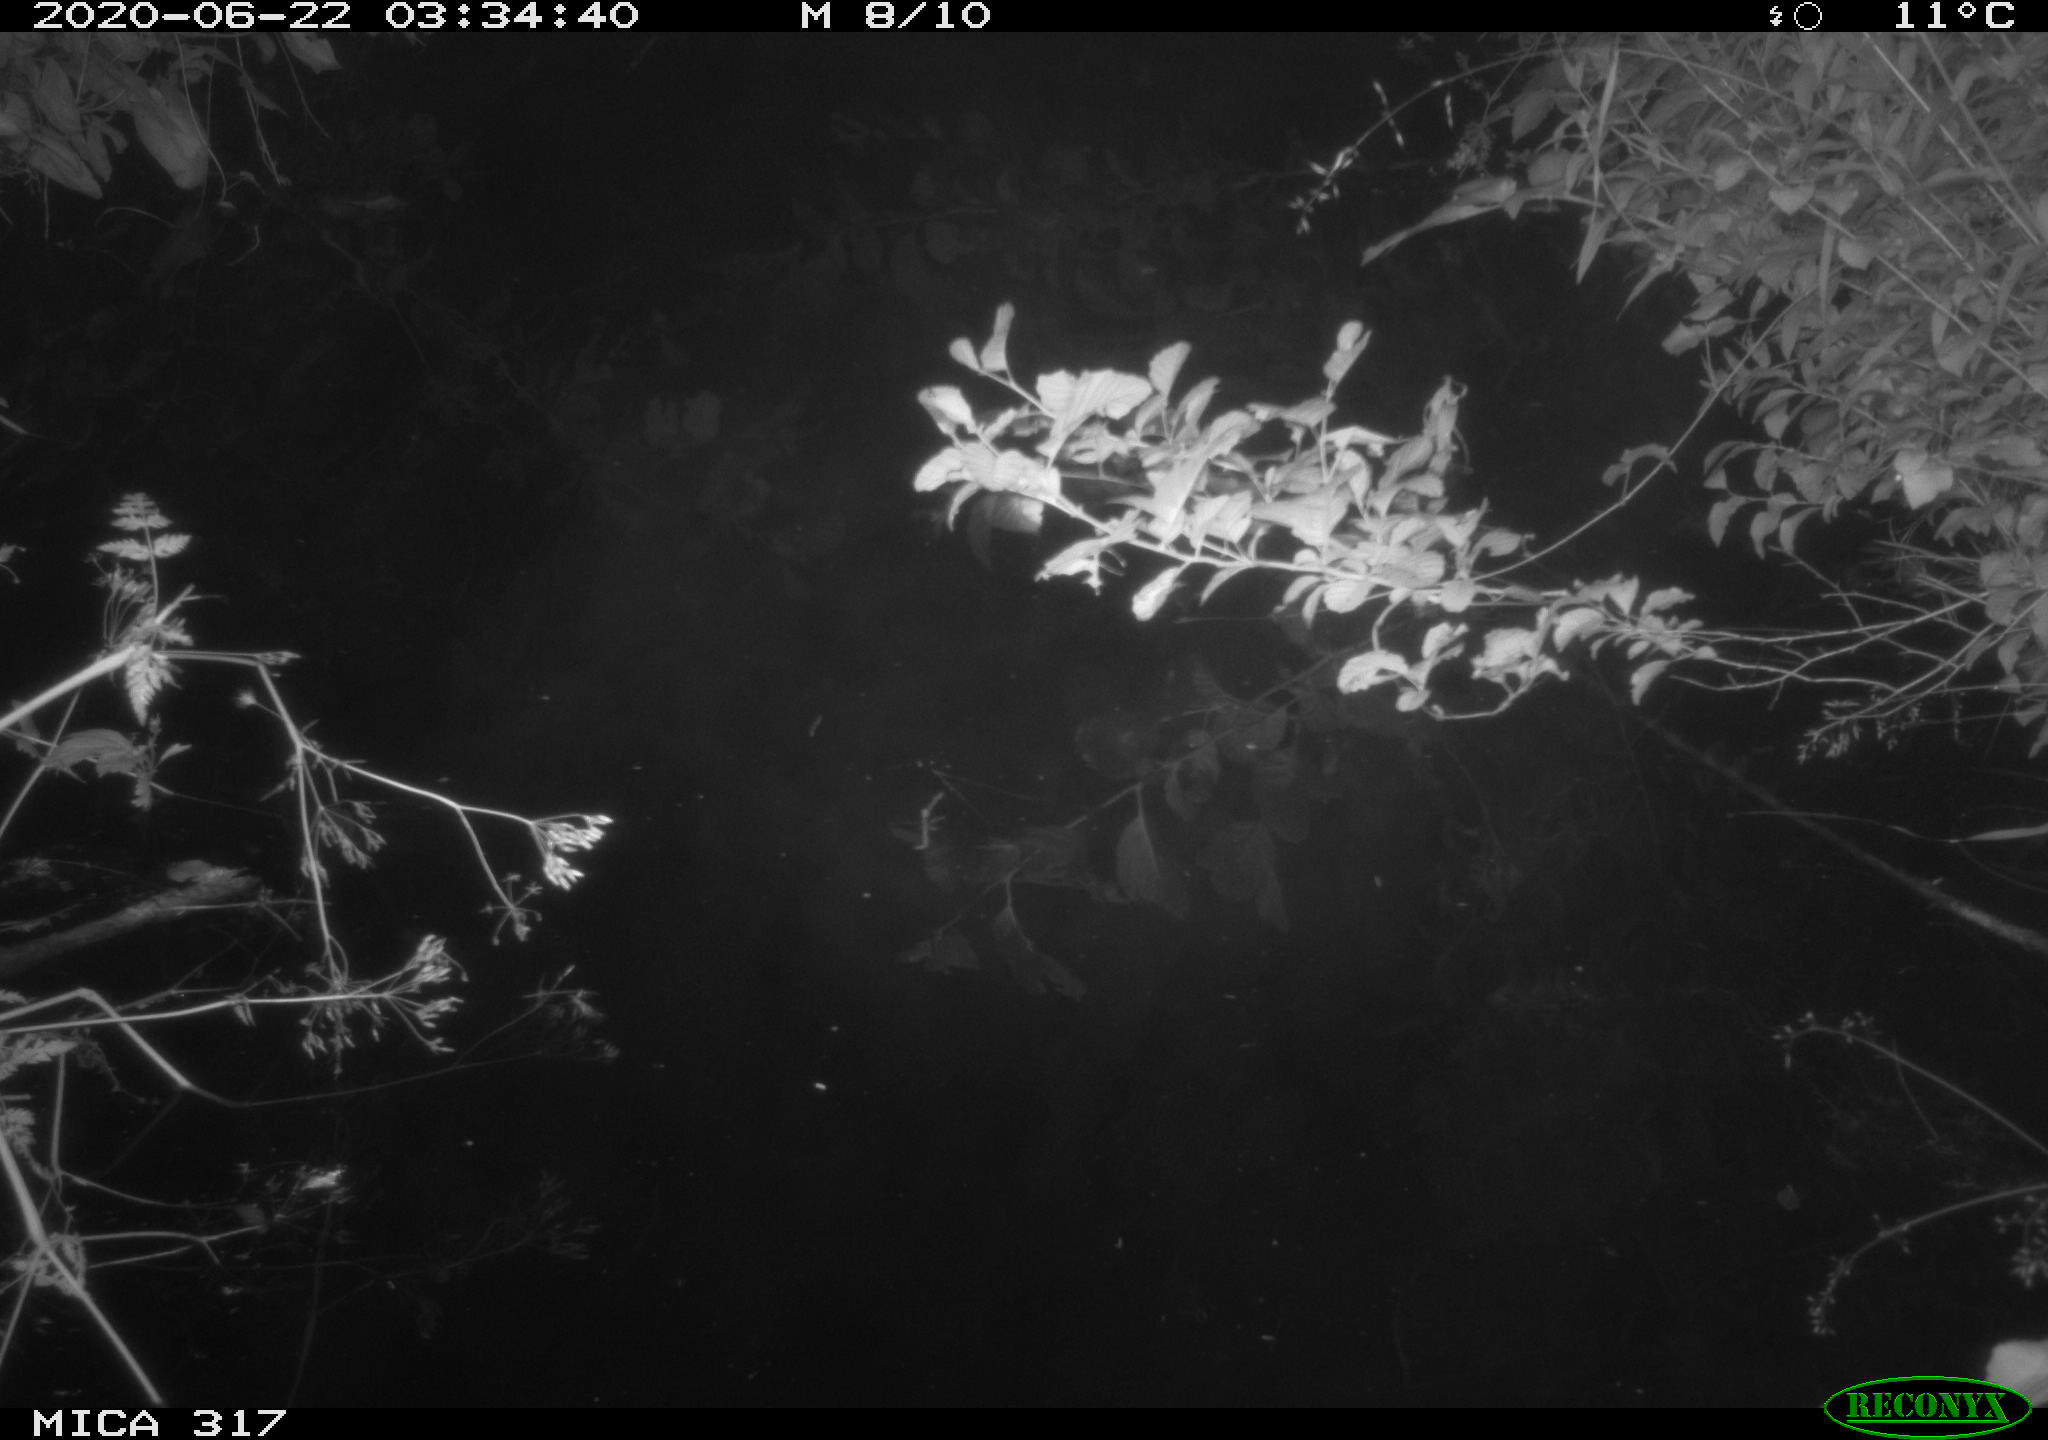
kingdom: Animalia
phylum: Chordata
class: Aves
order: Anseriformes
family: Anatidae
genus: Anas
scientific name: Anas platyrhynchos
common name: Mallard
